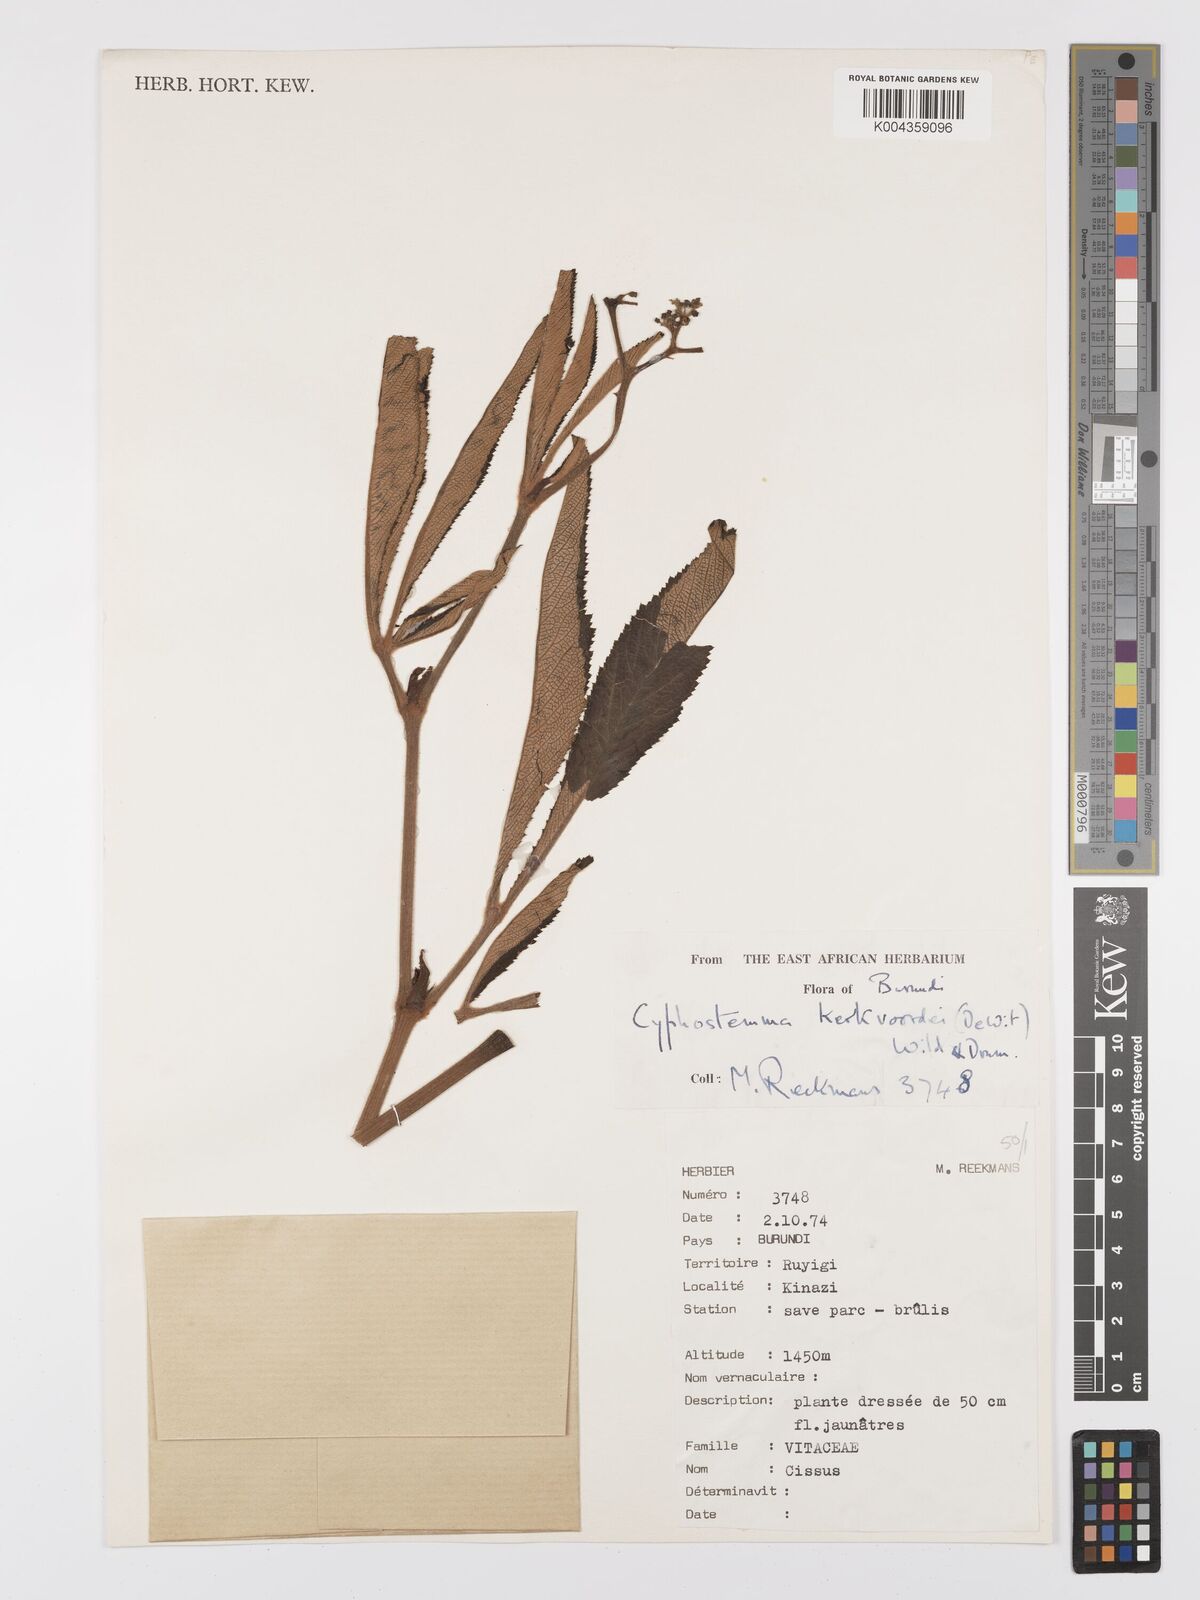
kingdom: Plantae
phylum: Tracheophyta
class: Magnoliopsida
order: Vitales
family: Vitaceae
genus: Cyphostemma
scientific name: Cyphostemma kerkvoordei
